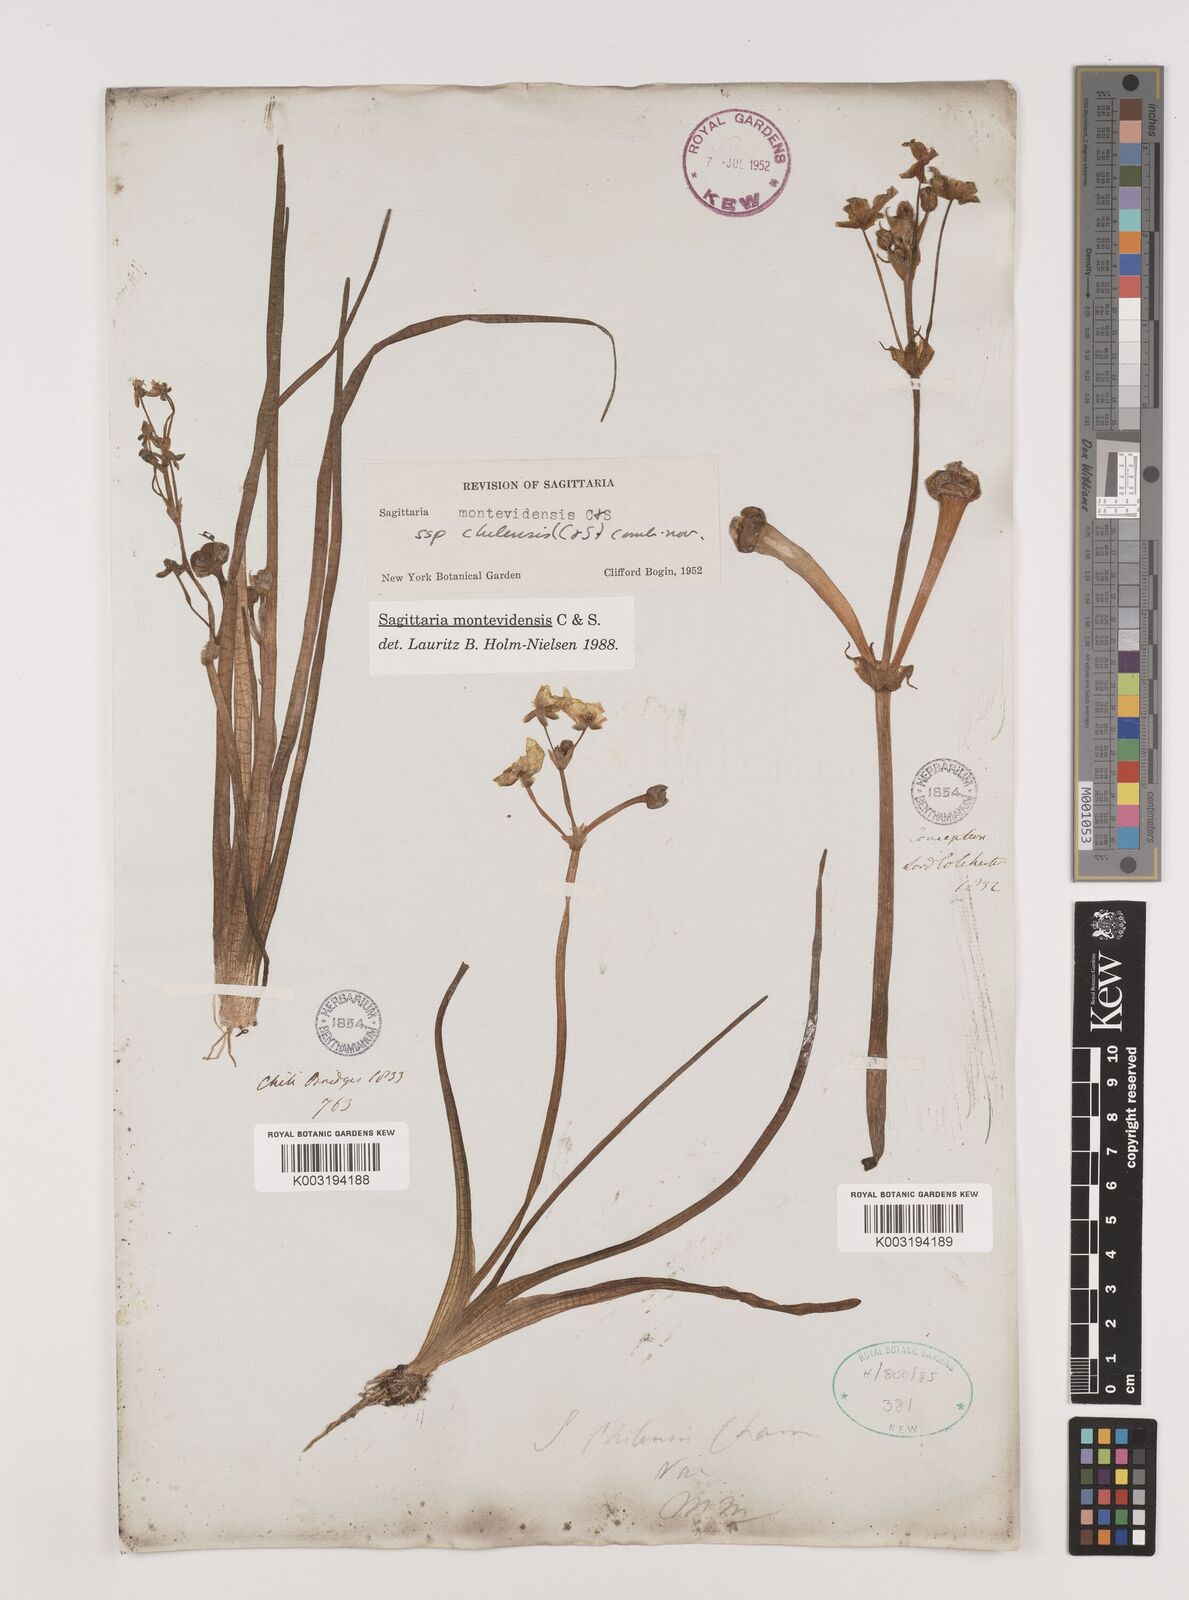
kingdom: Plantae
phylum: Tracheophyta
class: Liliopsida
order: Alismatales
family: Alismataceae
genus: Sagittaria
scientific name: Sagittaria montevidensis
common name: Giant arrowhead
